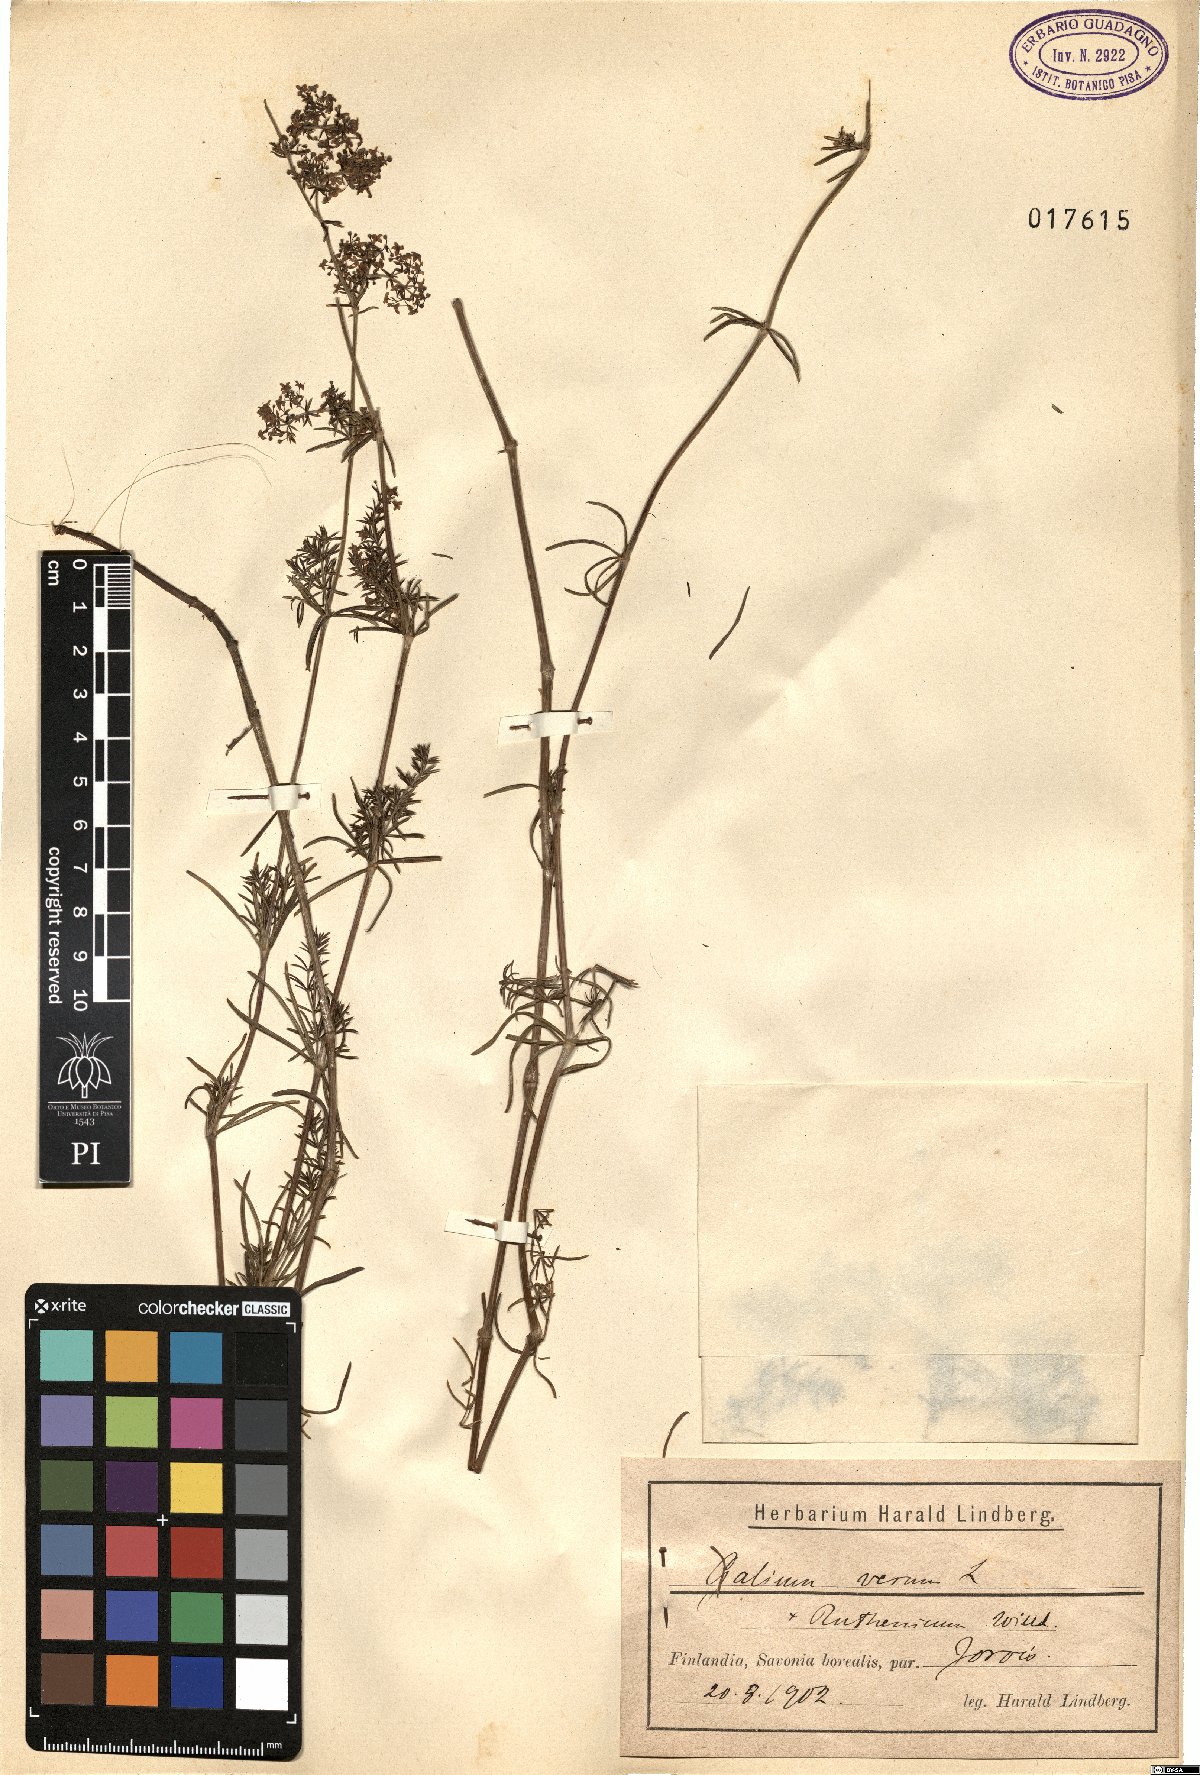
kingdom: Plantae
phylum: Tracheophyta
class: Magnoliopsida
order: Gentianales
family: Rubiaceae
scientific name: Rubiaceae
